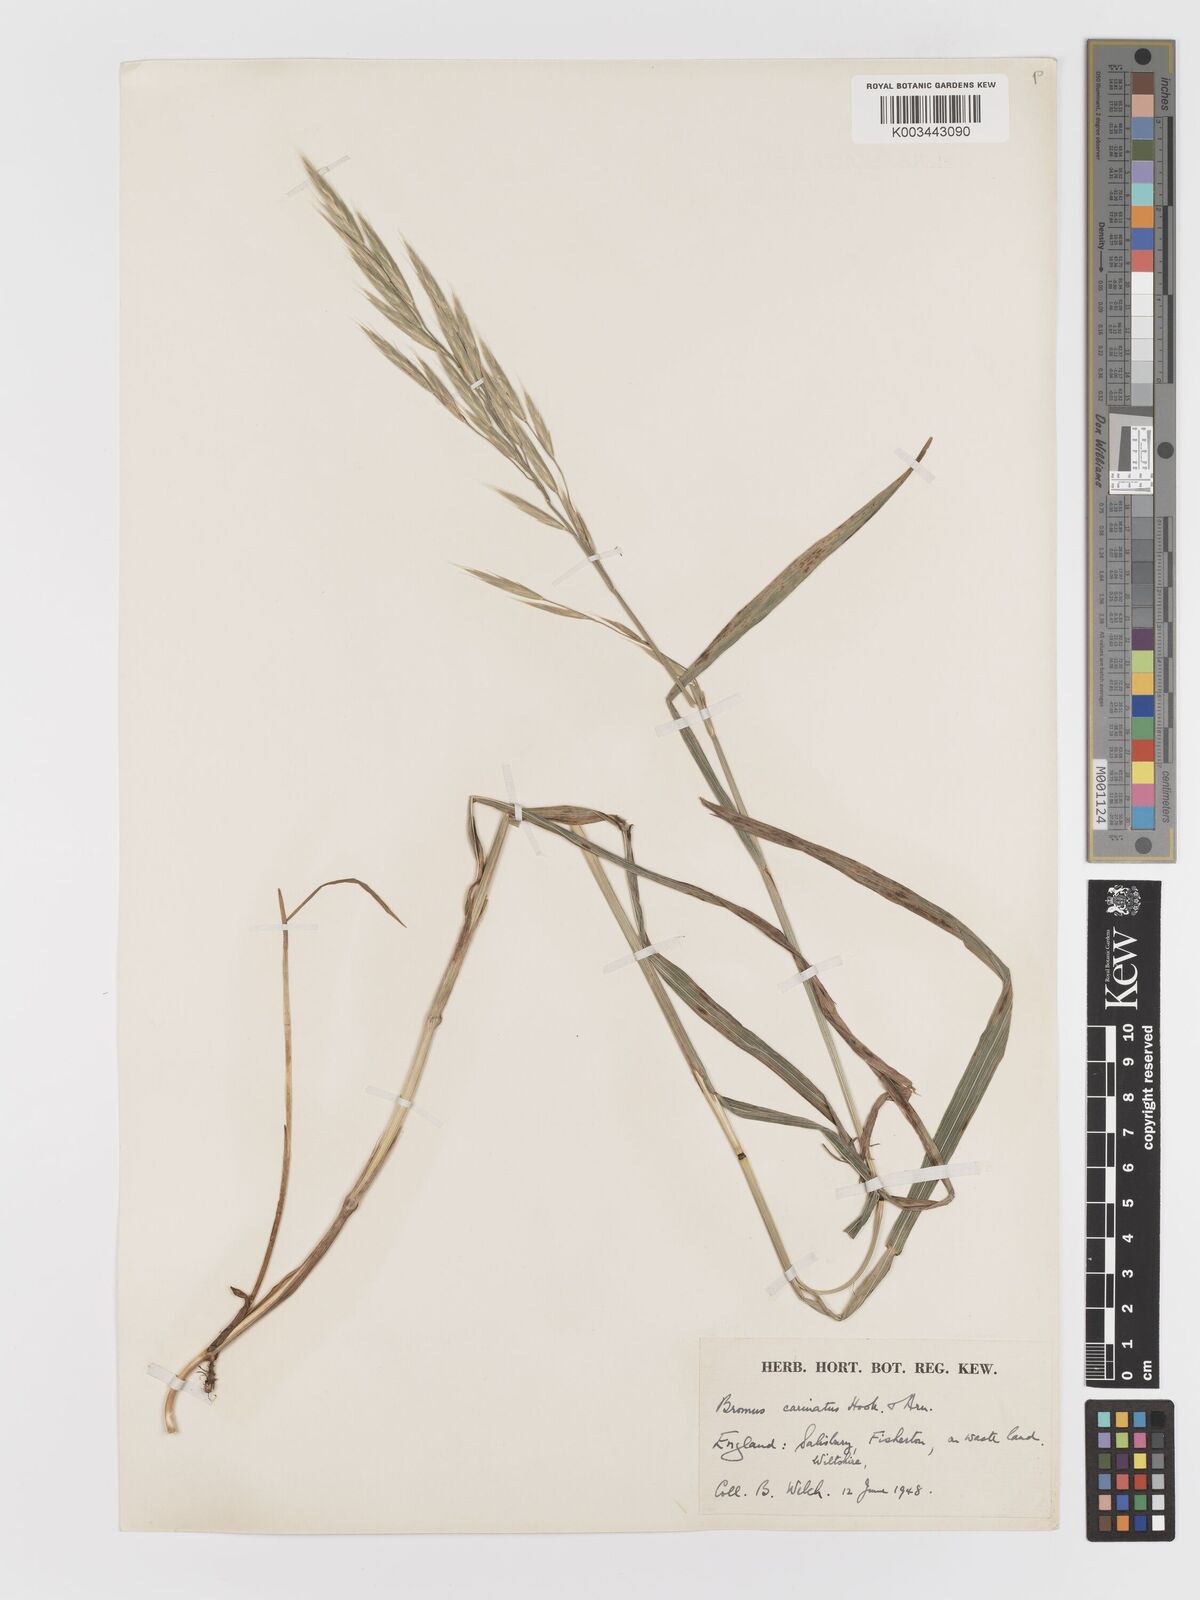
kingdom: Plantae
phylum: Tracheophyta
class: Liliopsida
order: Poales
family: Poaceae
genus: Bromus
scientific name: Bromus carinatus
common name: Mountain brome
